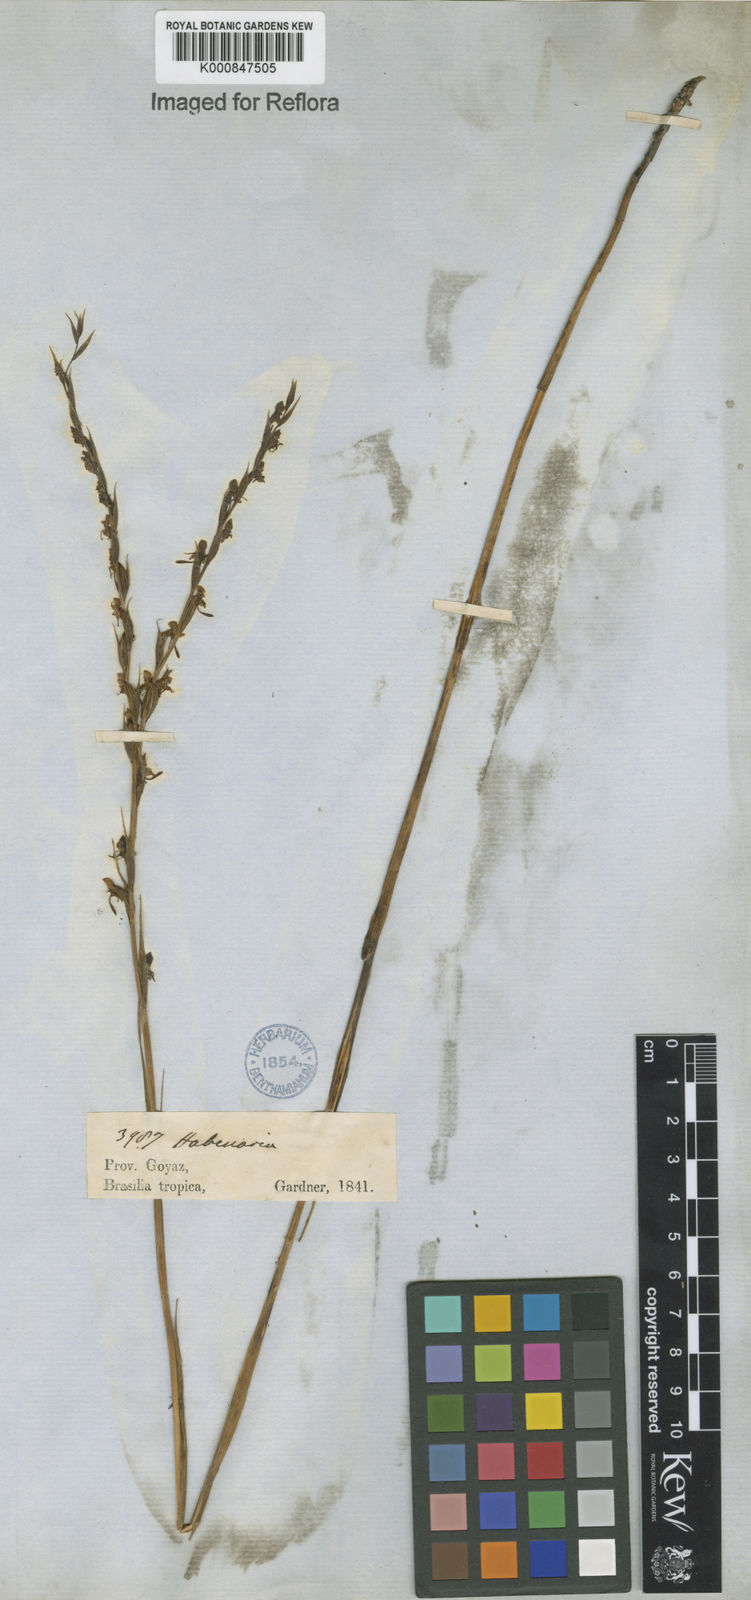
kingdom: Plantae
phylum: Tracheophyta
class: Liliopsida
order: Asparagales
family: Orchidaceae
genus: Habenaria
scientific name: Habenaria
